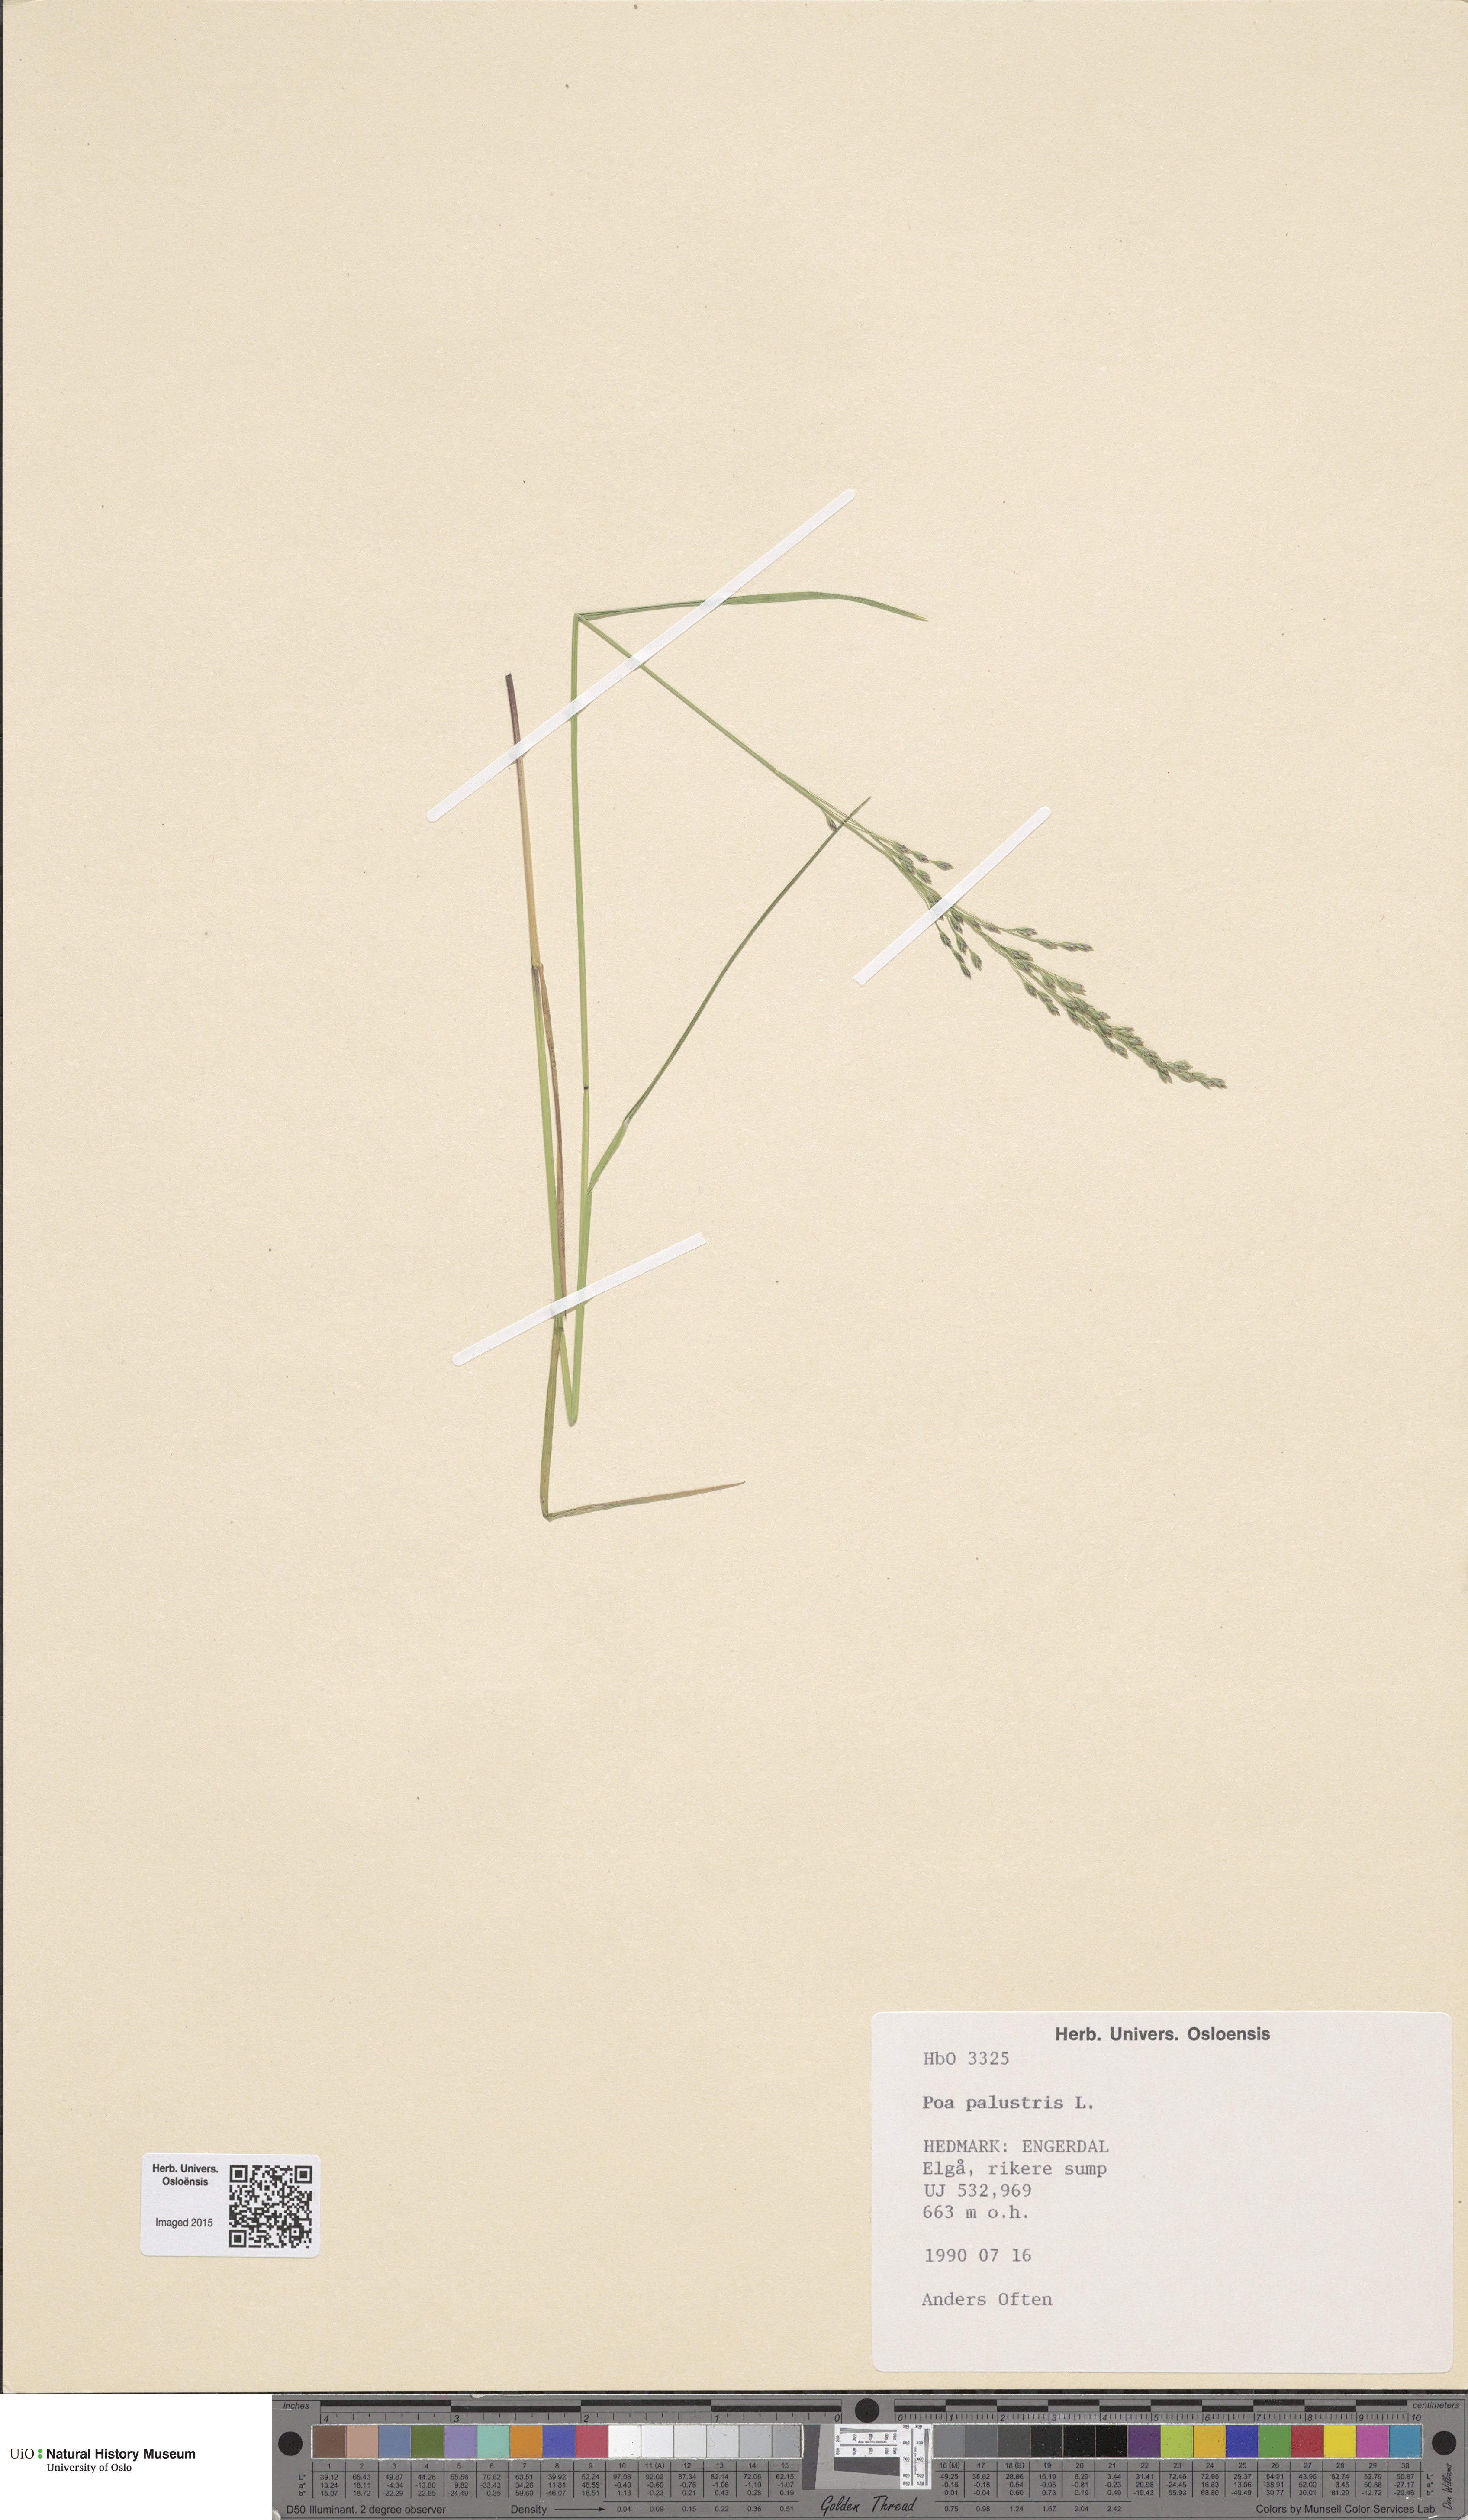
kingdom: Plantae
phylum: Tracheophyta
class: Liliopsida
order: Poales
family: Poaceae
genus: Poa
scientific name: Poa palustris
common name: Swamp meadow-grass
